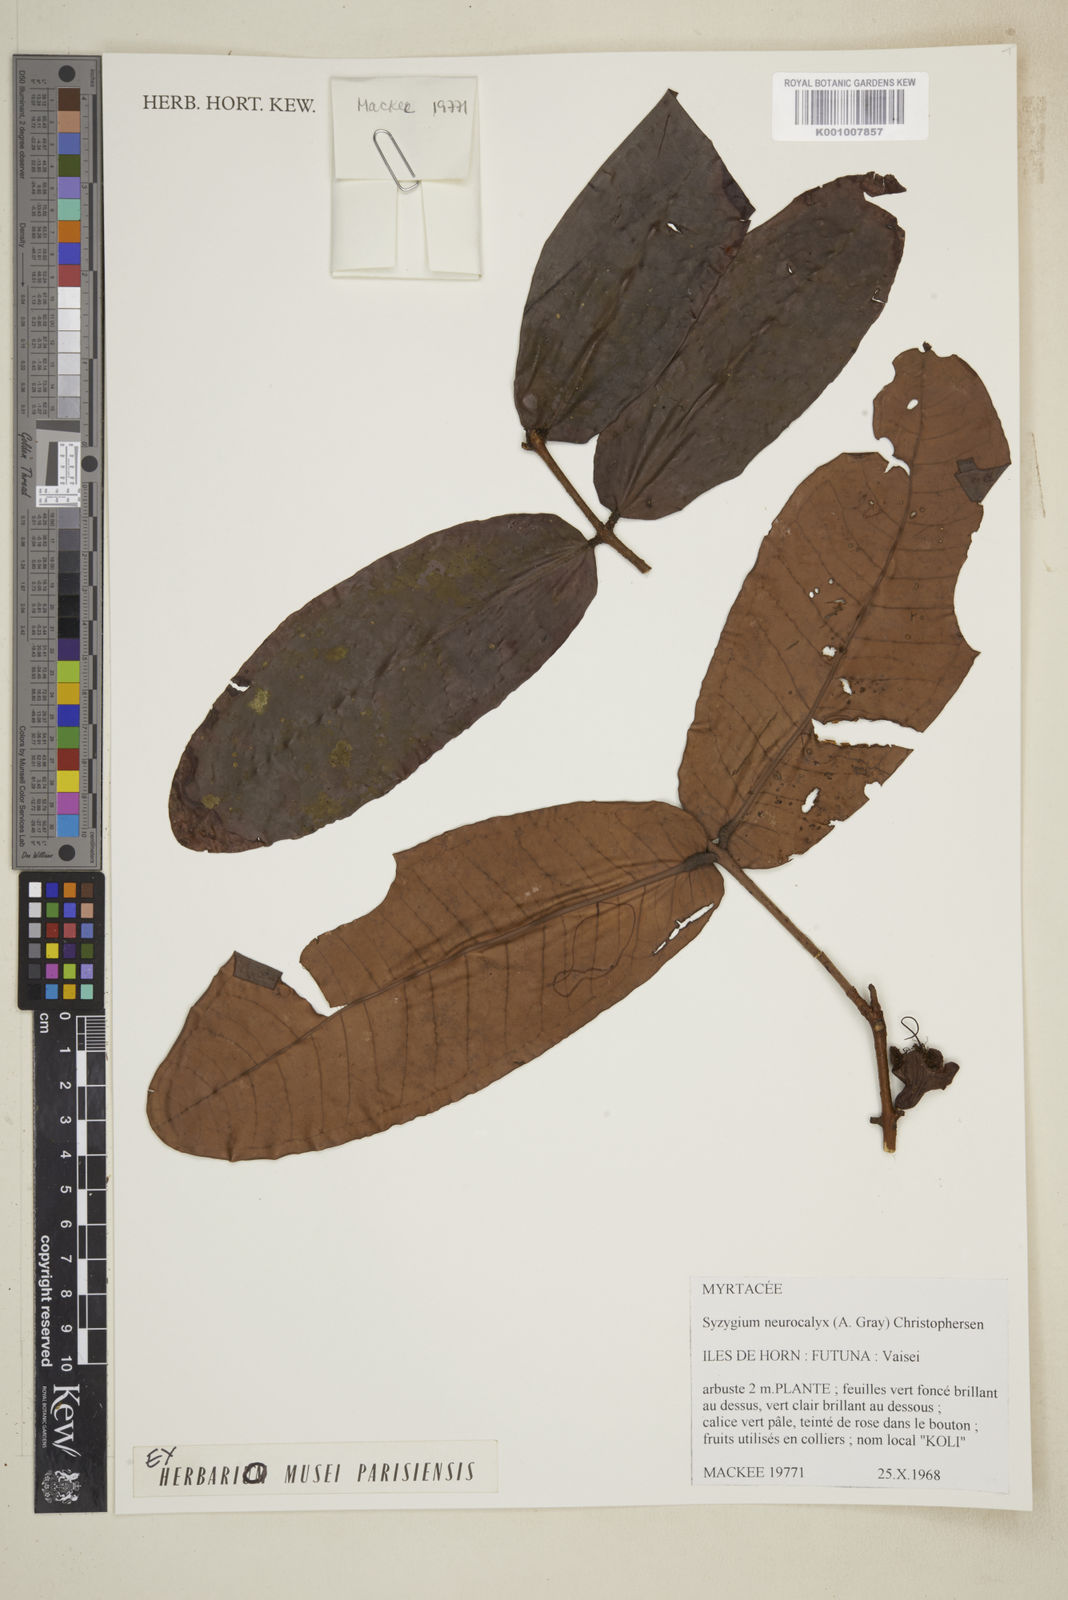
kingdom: Plantae
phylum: Tracheophyta
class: Magnoliopsida
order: Myrtales
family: Myrtaceae
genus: Syzygium
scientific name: Syzygium neurocalyx
